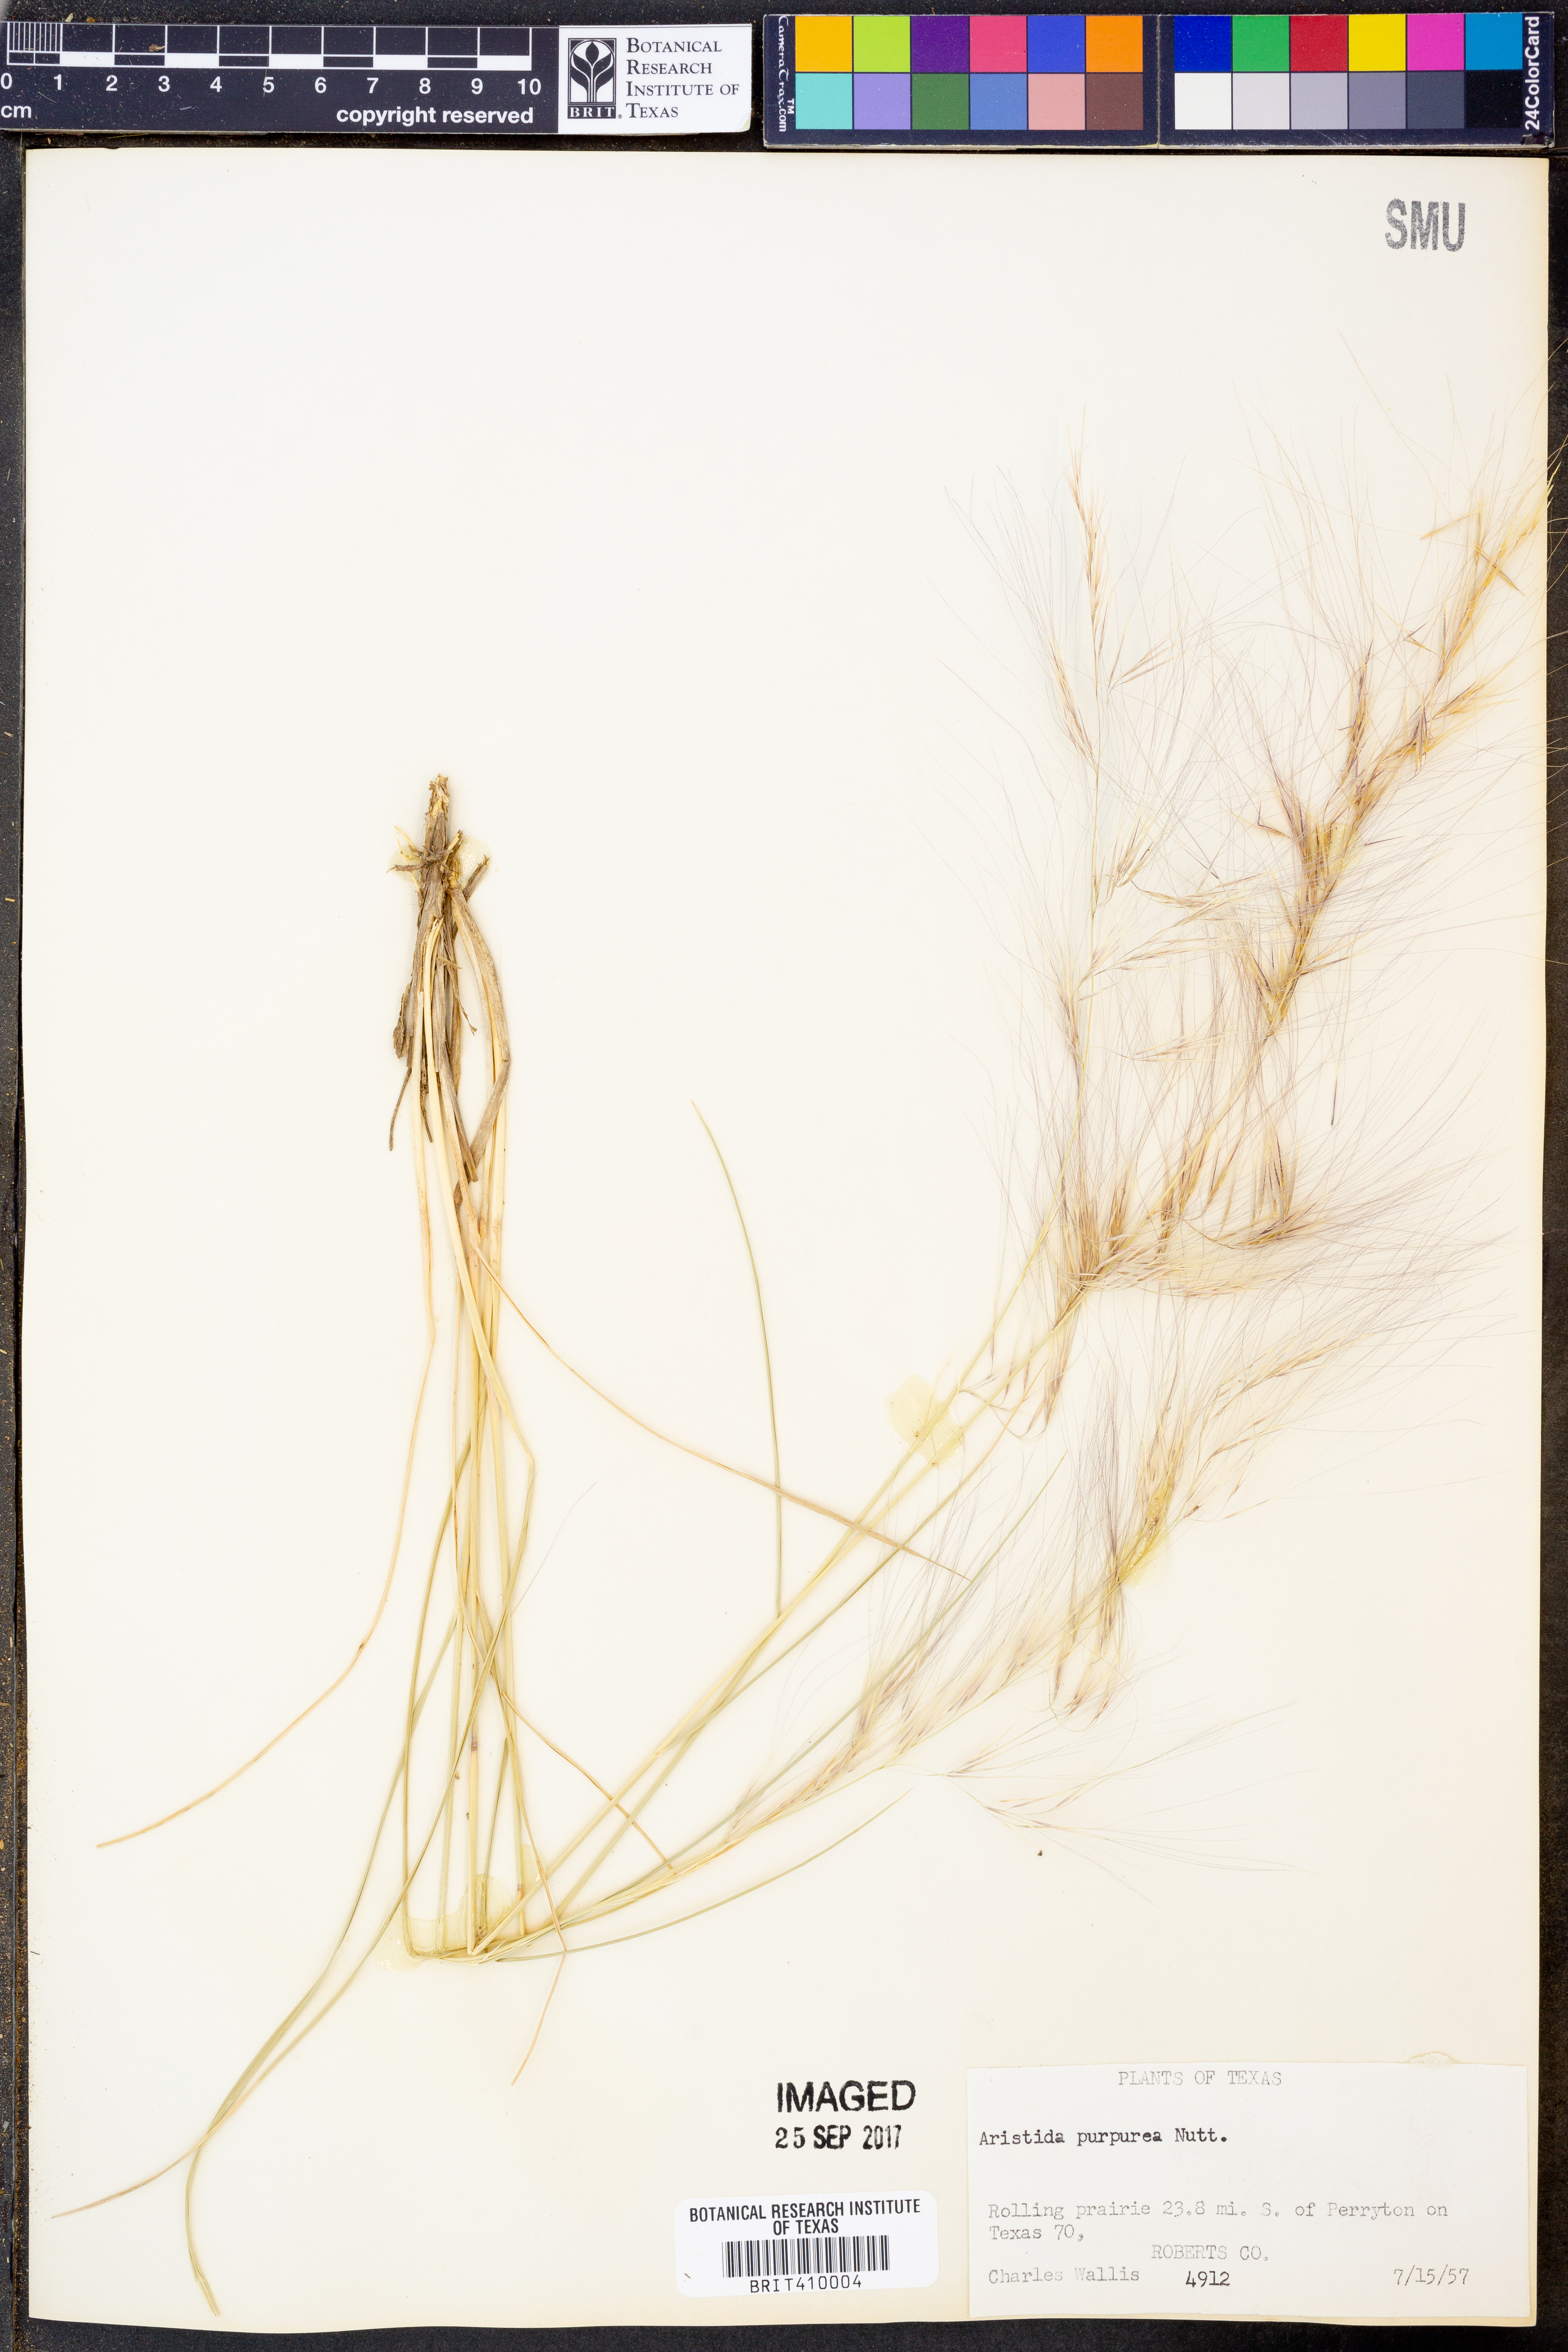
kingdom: Plantae
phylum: Tracheophyta
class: Liliopsida
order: Poales
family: Poaceae
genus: Aristida
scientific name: Aristida purpurea
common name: Purple threeawn
